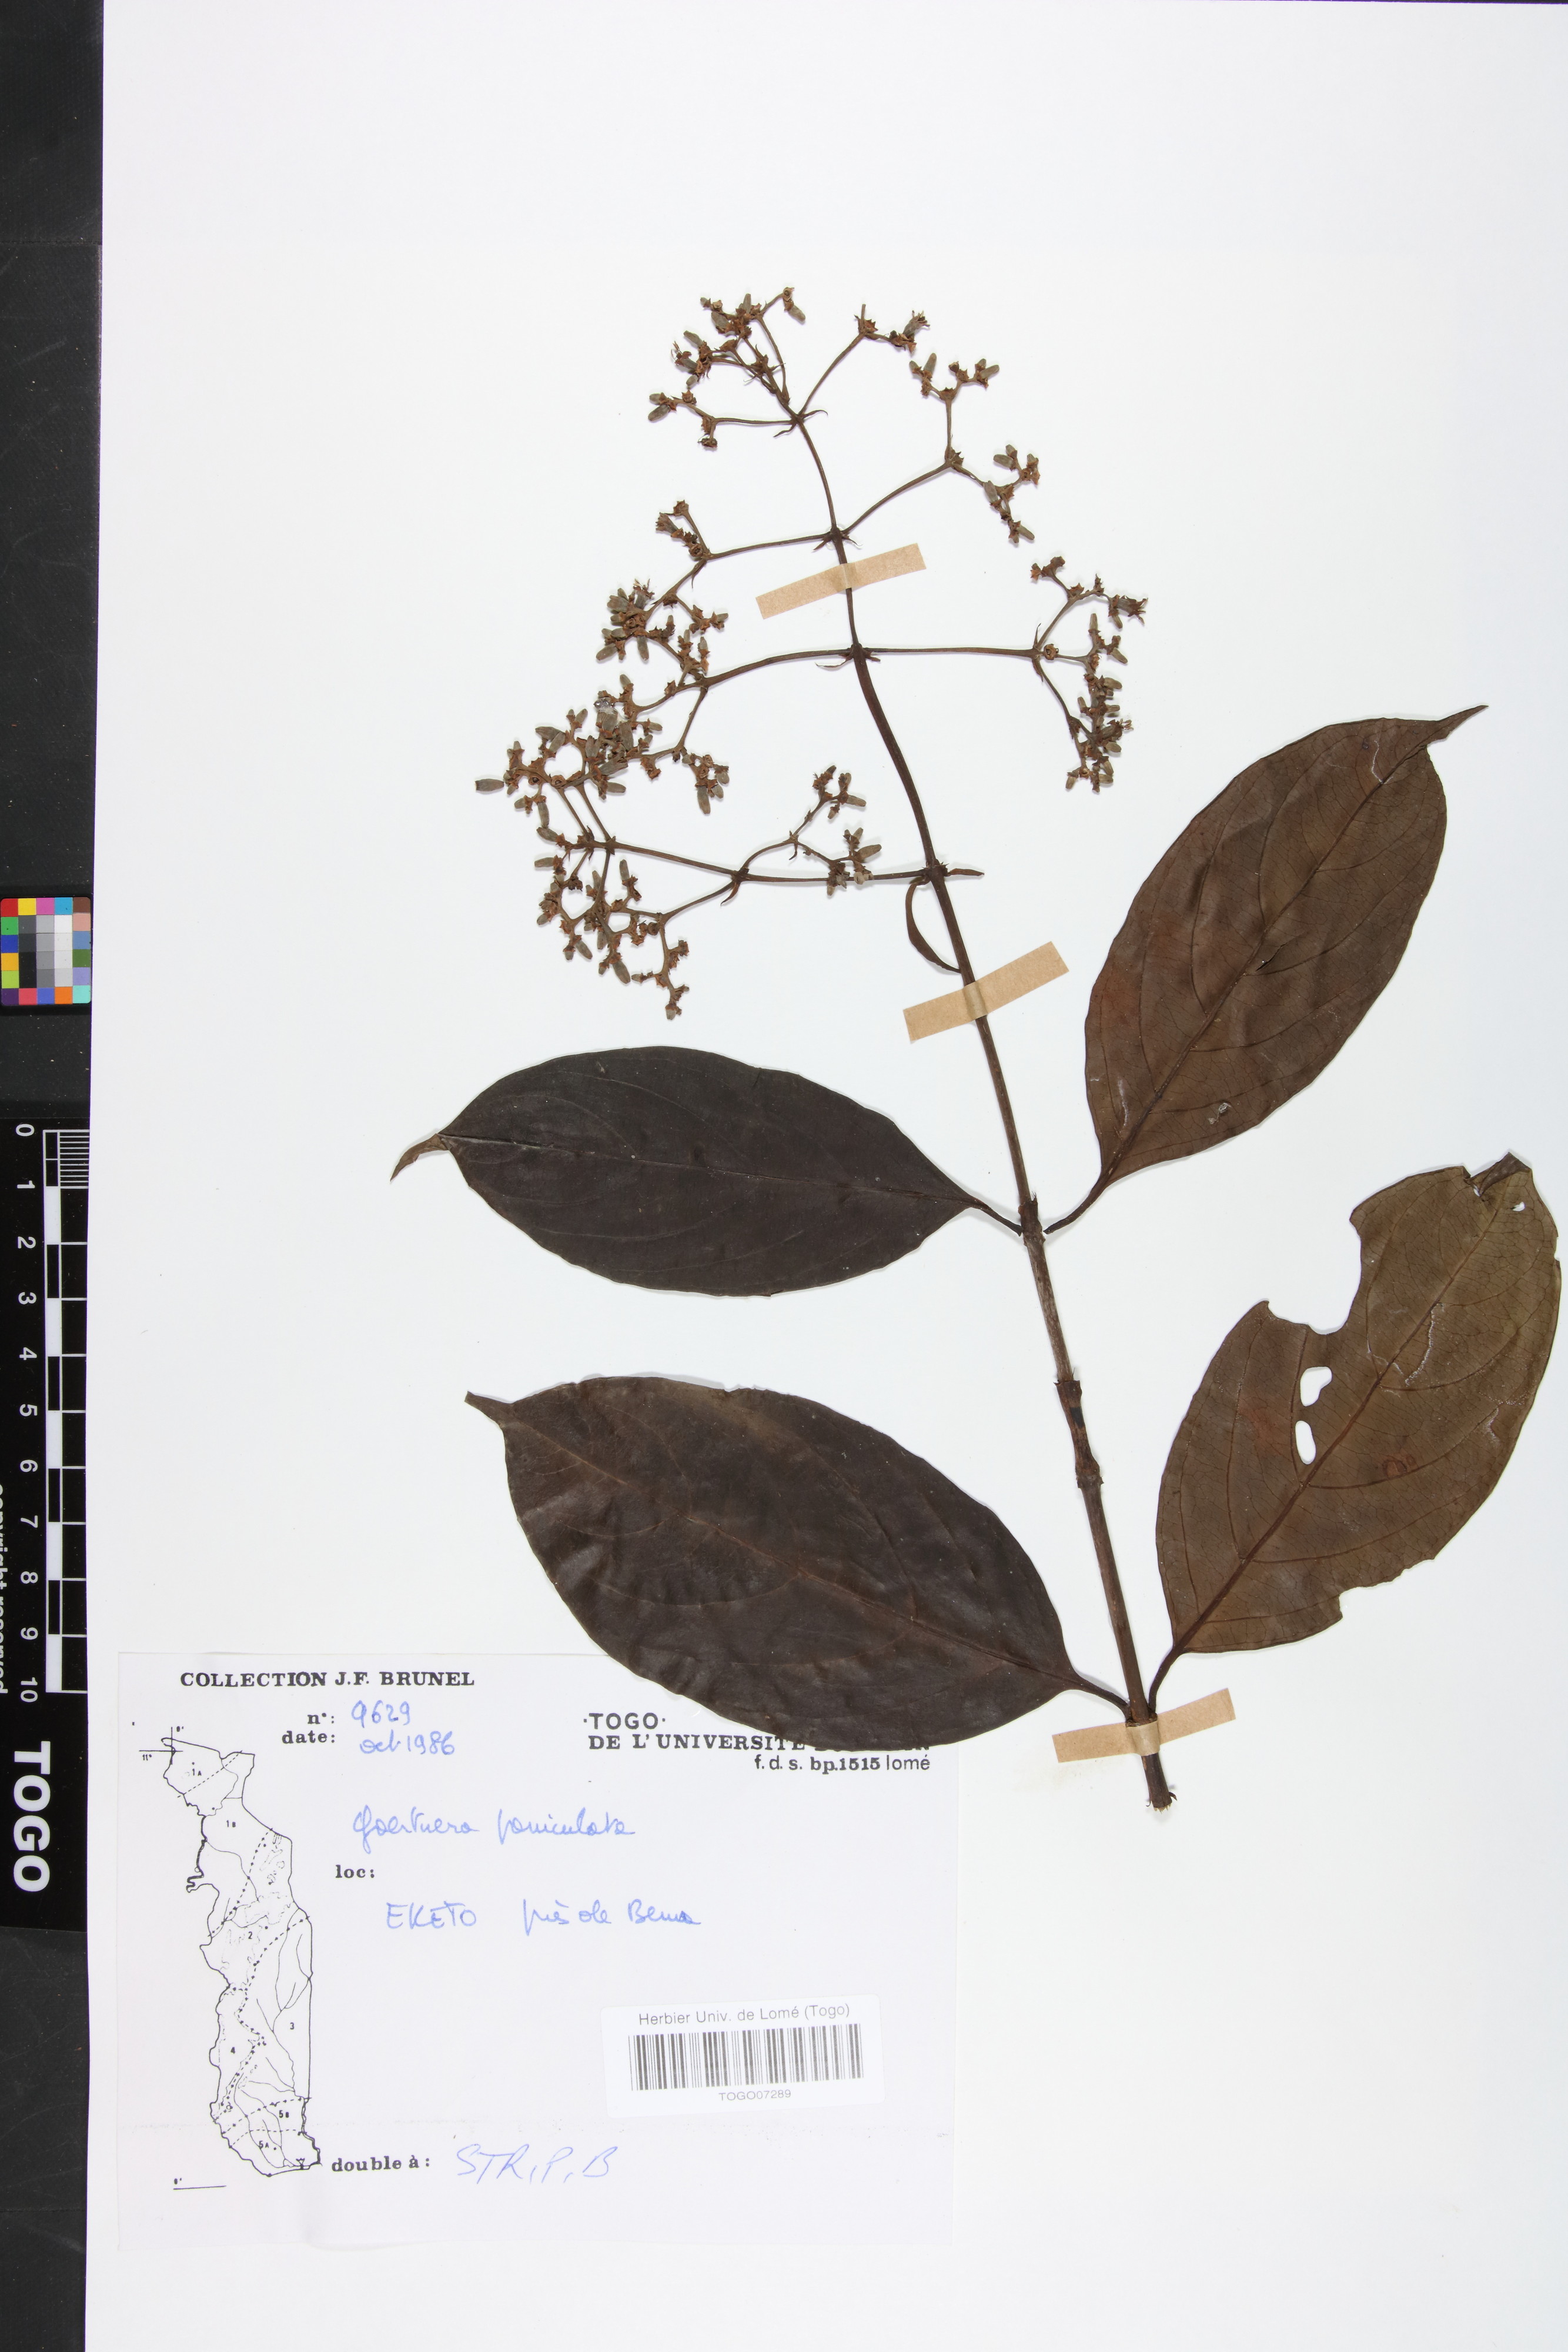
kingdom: Plantae
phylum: Tracheophyta
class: Magnoliopsida
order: Gentianales
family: Rubiaceae
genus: Gaertnera
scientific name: Gaertnera paniculata
